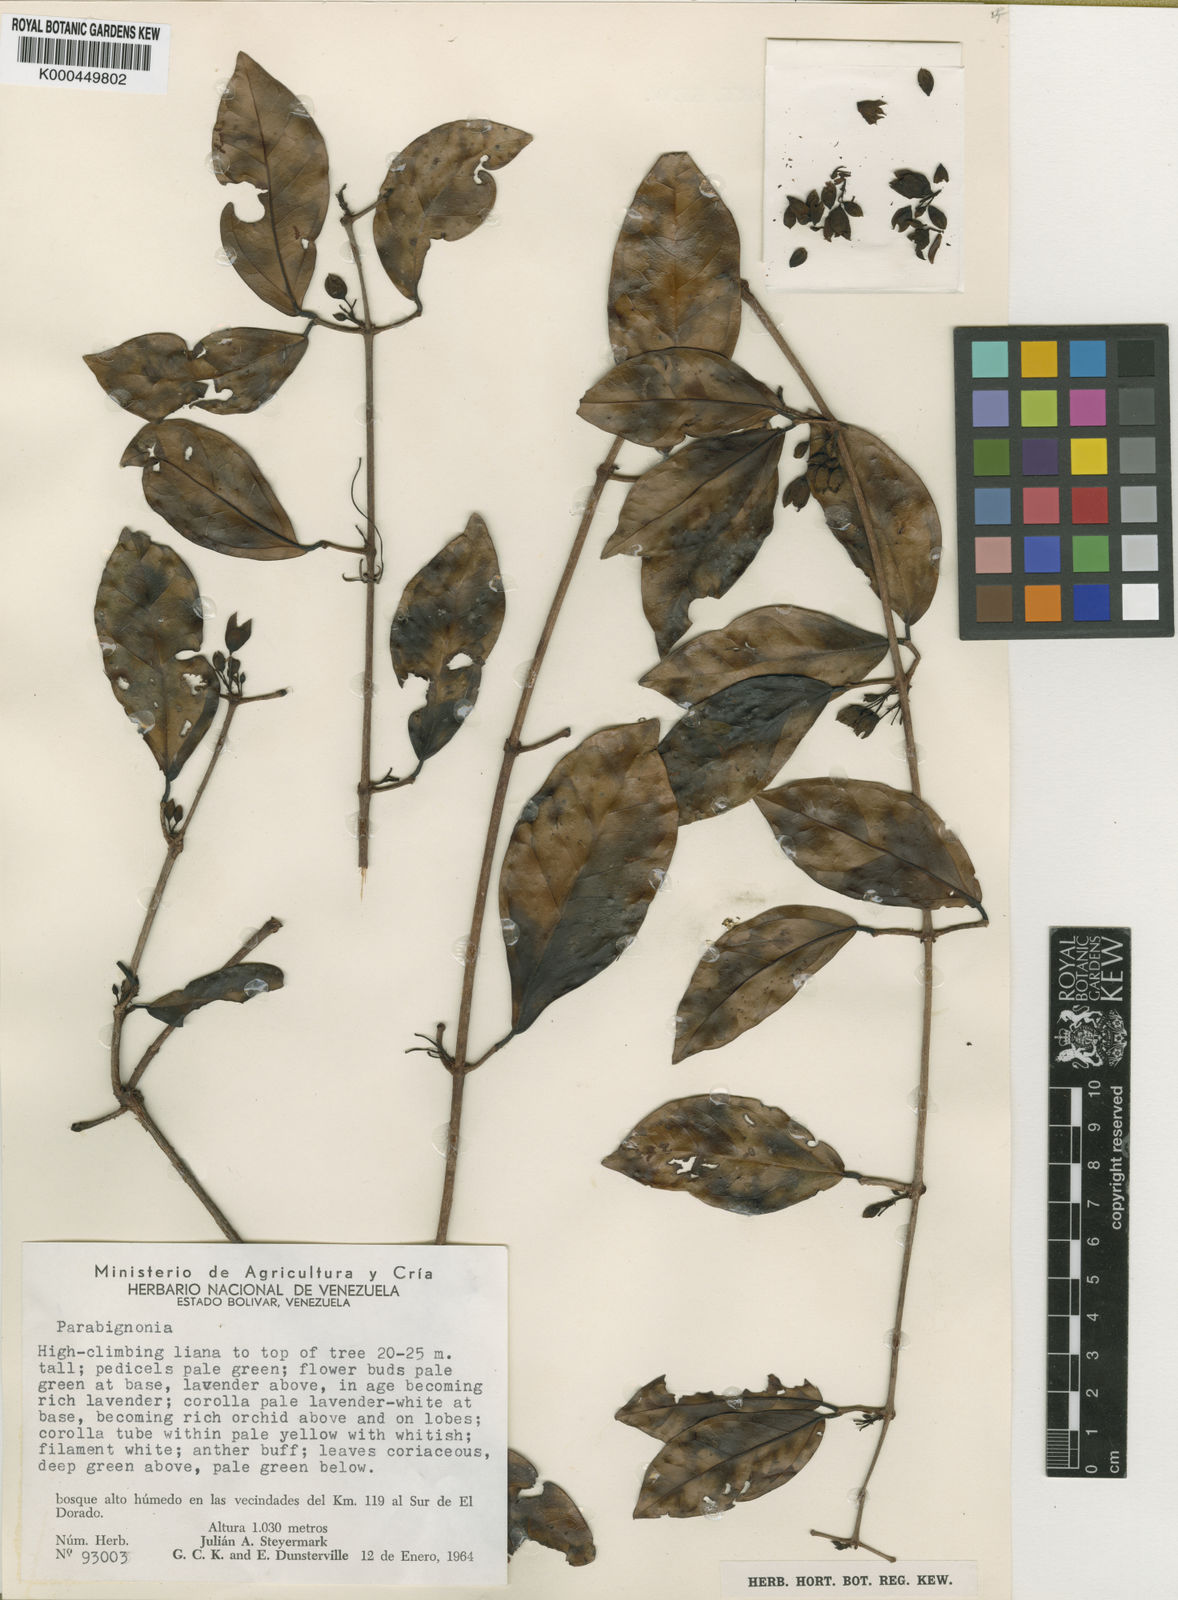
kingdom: Plantae
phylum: Tracheophyta
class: Magnoliopsida
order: Lamiales
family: Bignoniaceae
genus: Dolichandra
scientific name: Dolichandra steyermarkii
